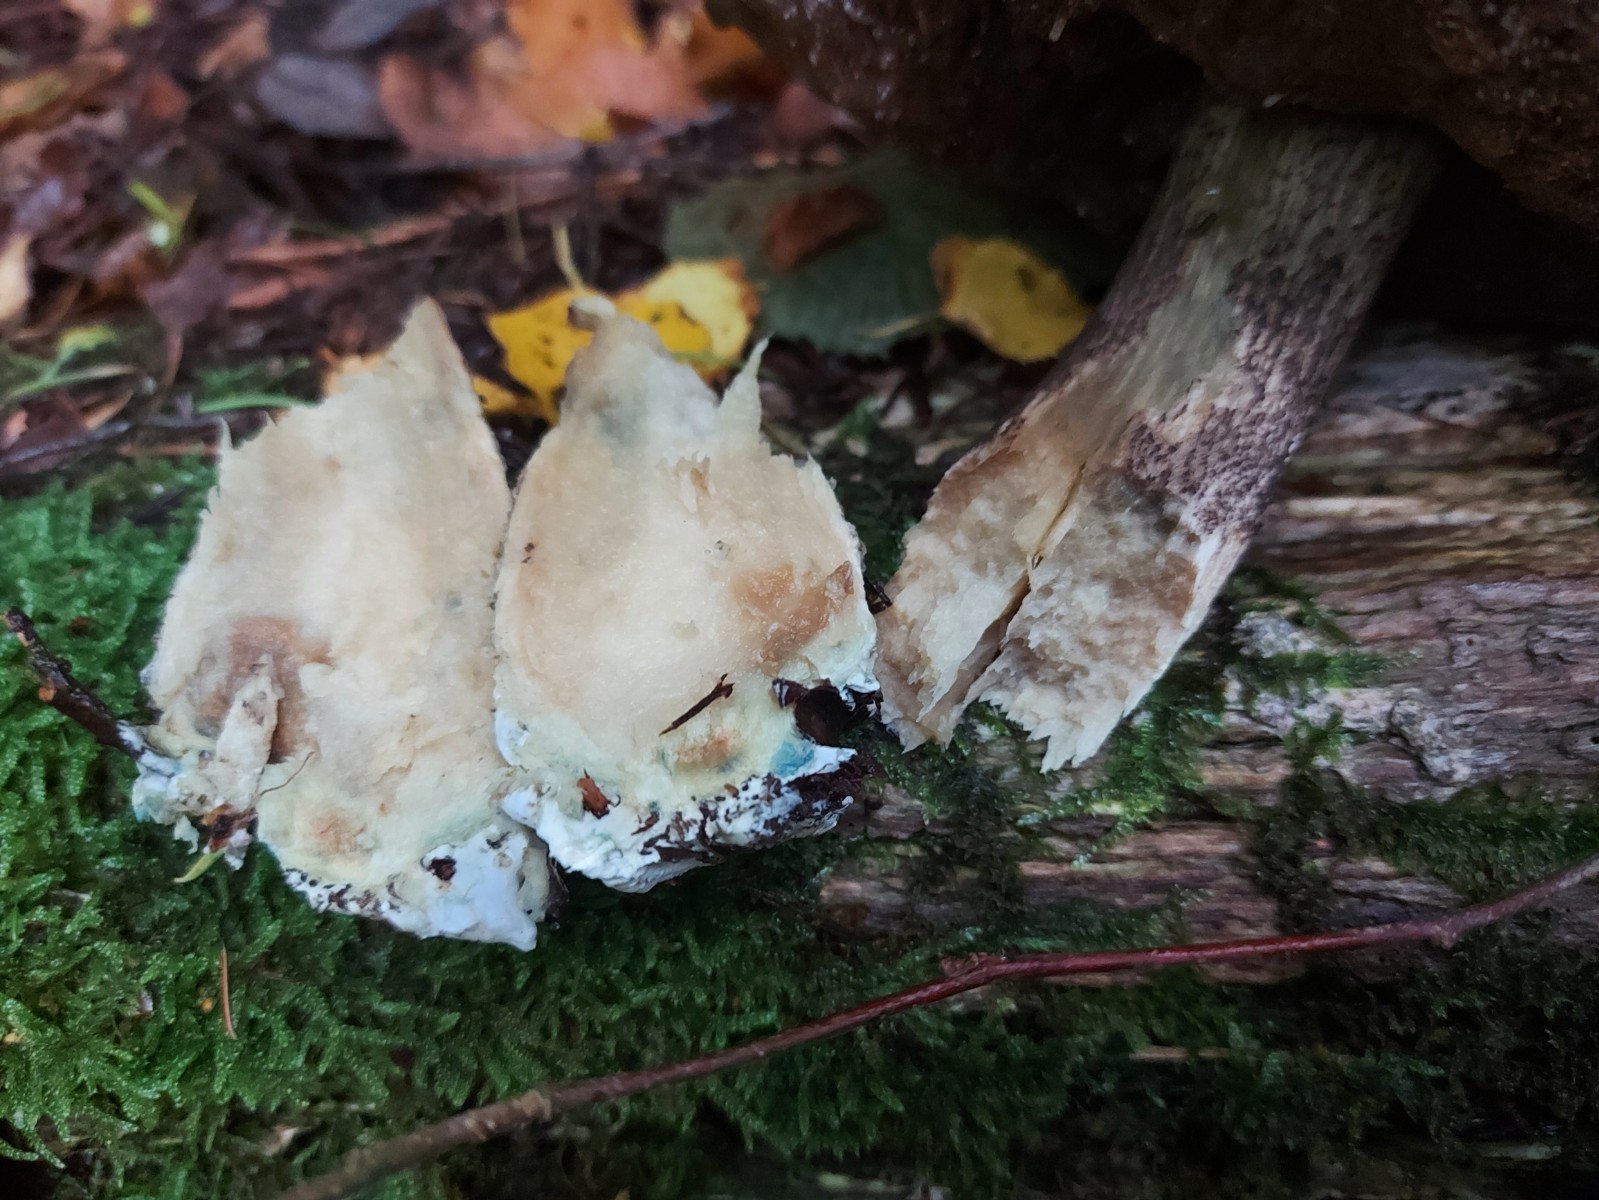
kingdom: Fungi
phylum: Basidiomycota
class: Agaricomycetes
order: Boletales
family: Boletaceae
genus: Leccinum
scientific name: Leccinum
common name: skælrørhat
